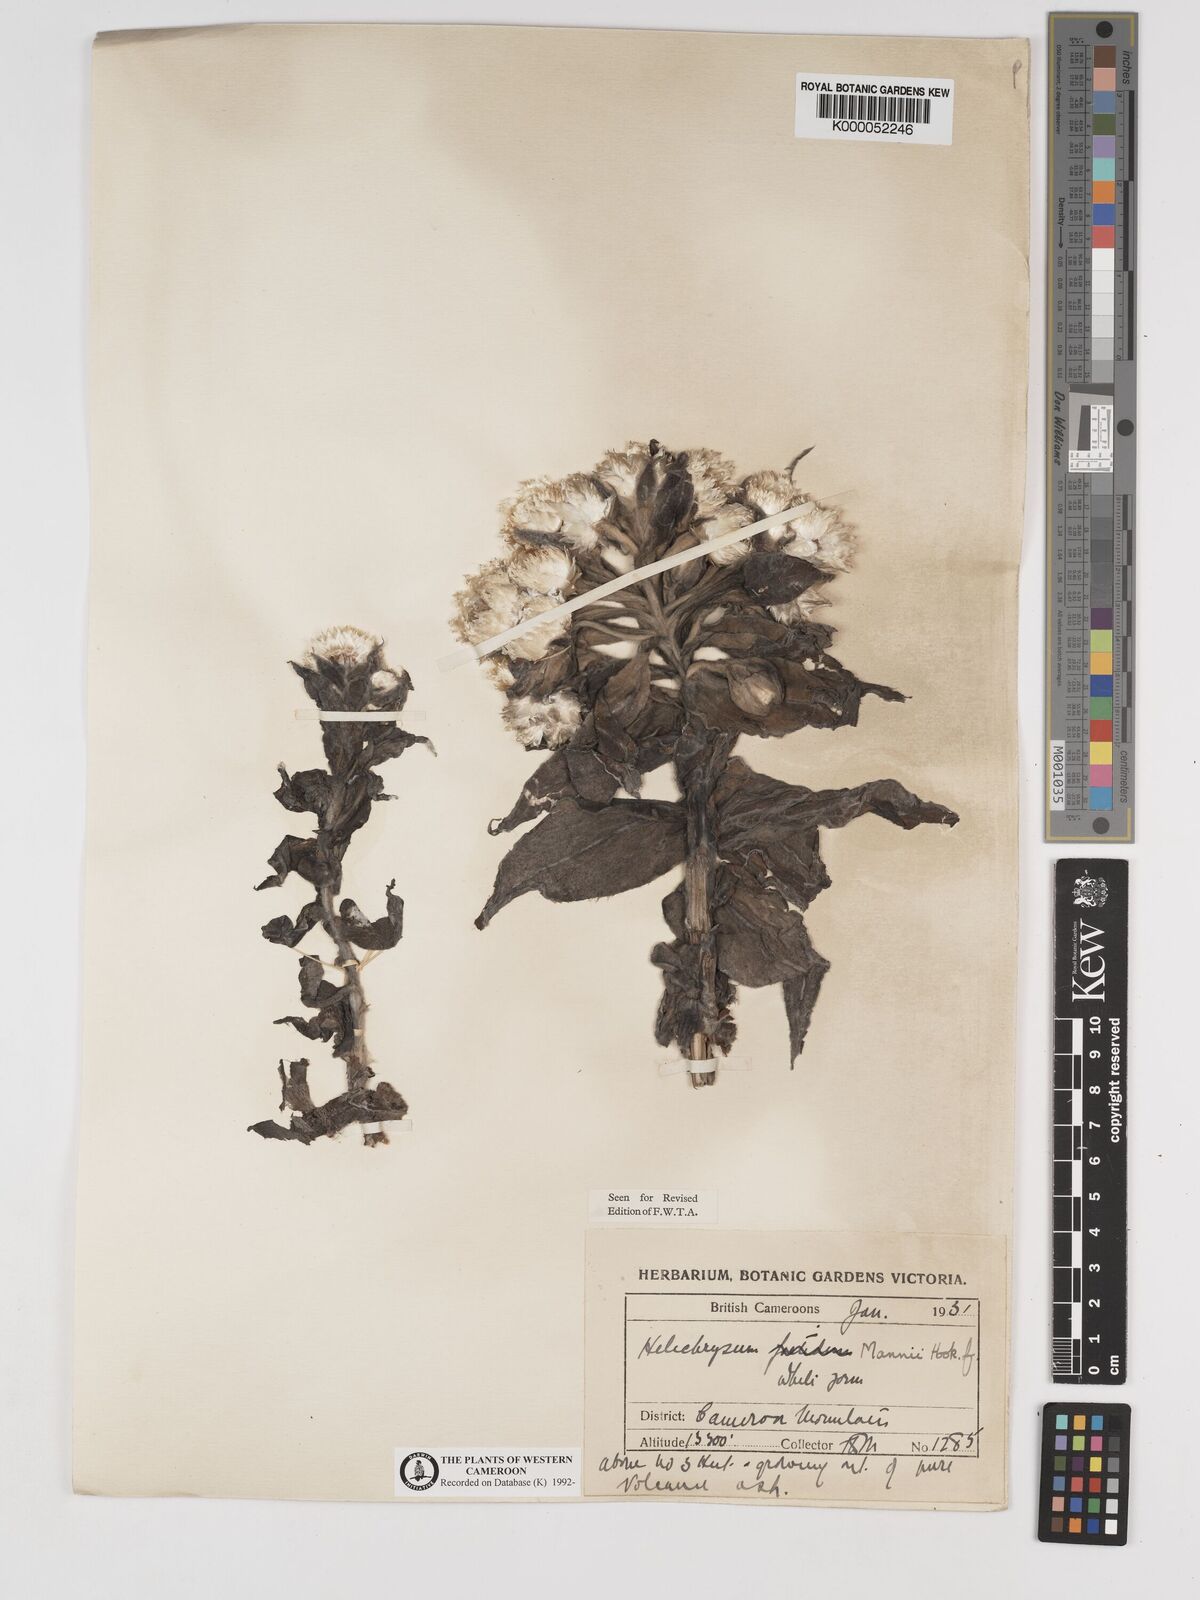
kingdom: Plantae
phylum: Tracheophyta
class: Magnoliopsida
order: Asterales
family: Asteraceae
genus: Helichrysum
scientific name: Helichrysum mannii
